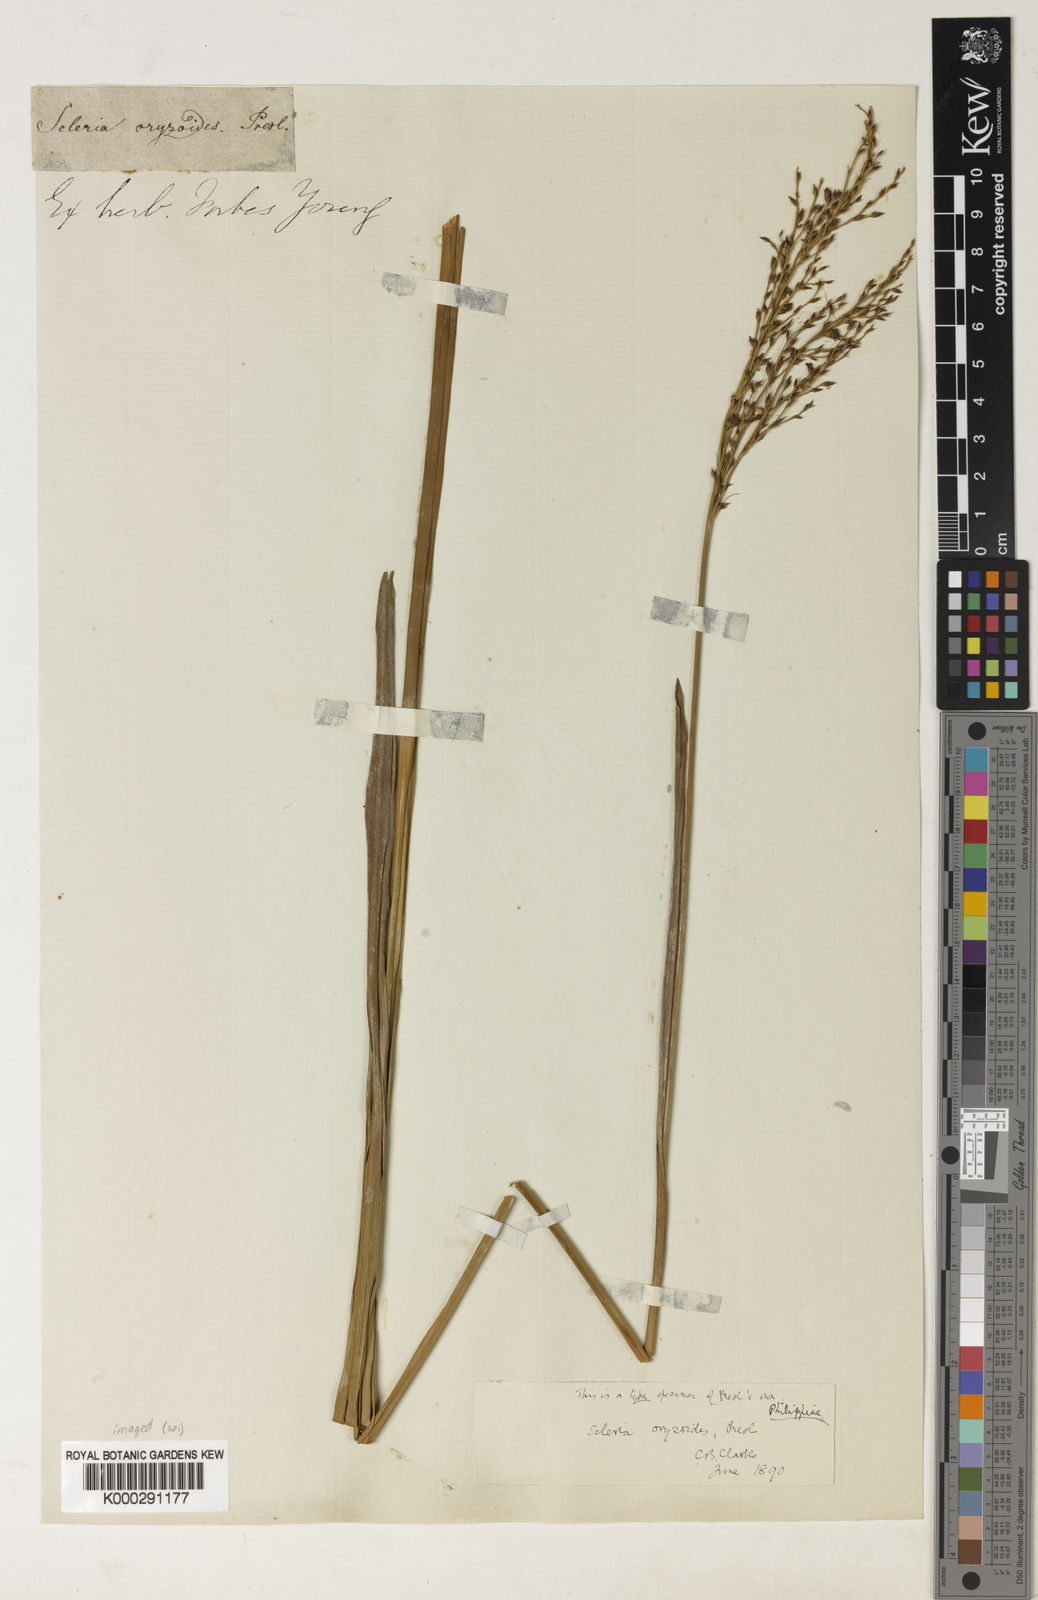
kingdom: Plantae
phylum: Tracheophyta
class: Liliopsida
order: Poales
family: Cyperaceae
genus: Scleria
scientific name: Scleria poiformis
